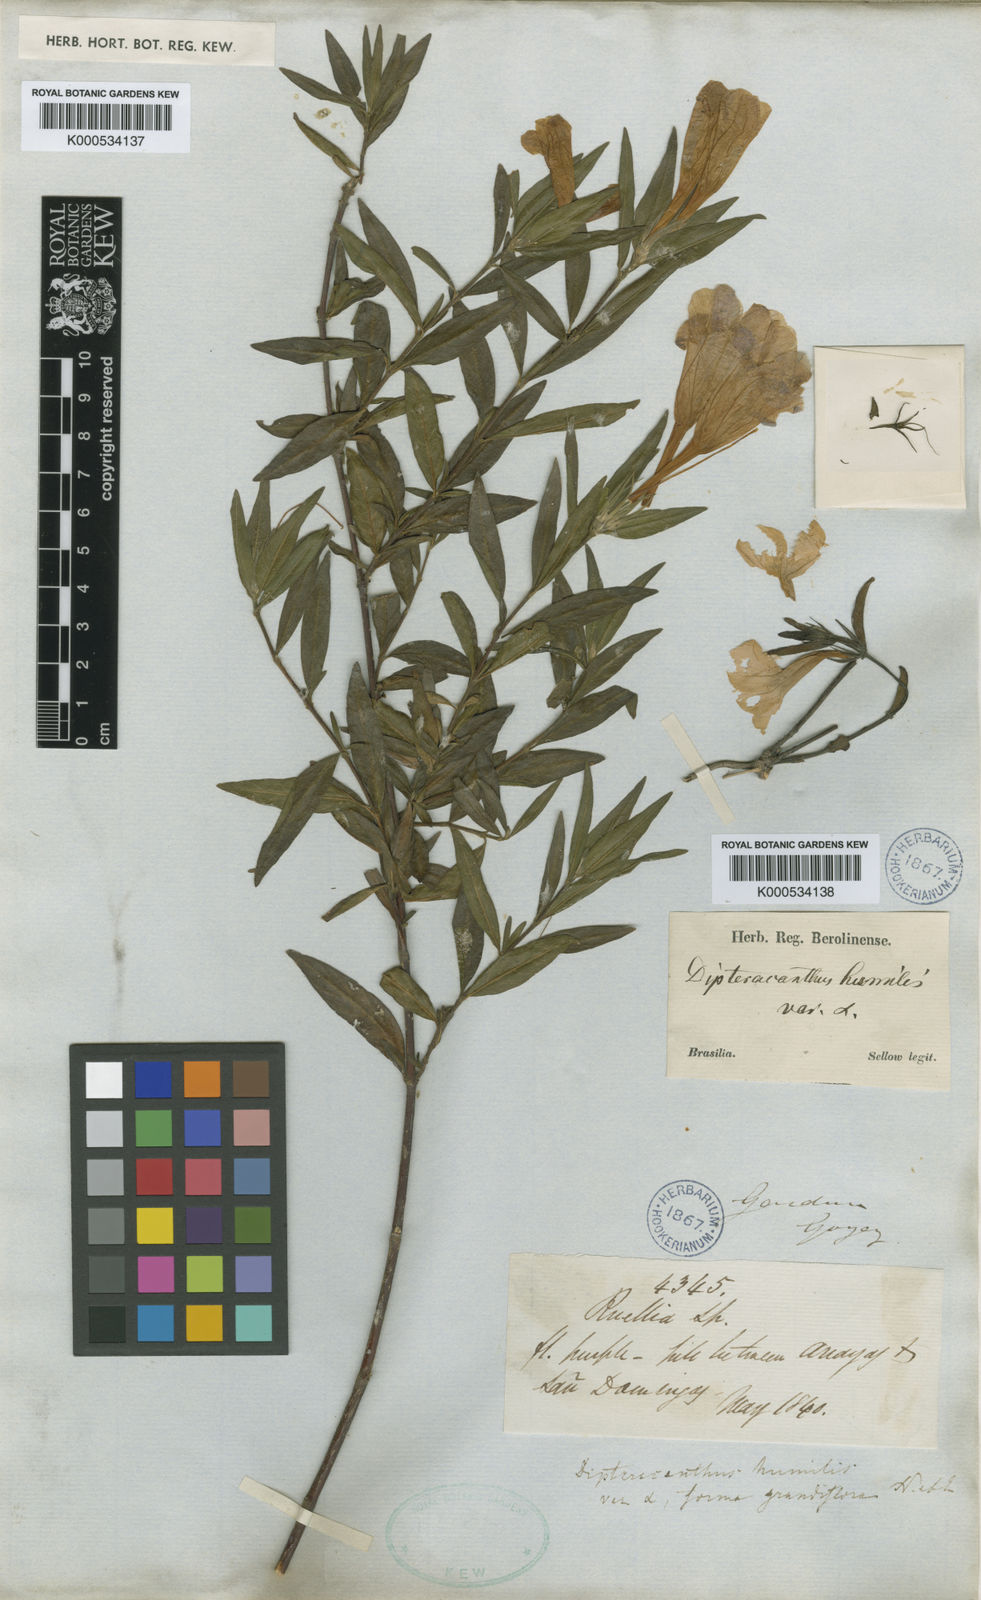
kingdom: Plantae
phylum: Tracheophyta
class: Magnoliopsida
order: Lamiales
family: Acanthaceae
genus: Ruellia
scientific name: Ruellia geminiflora
